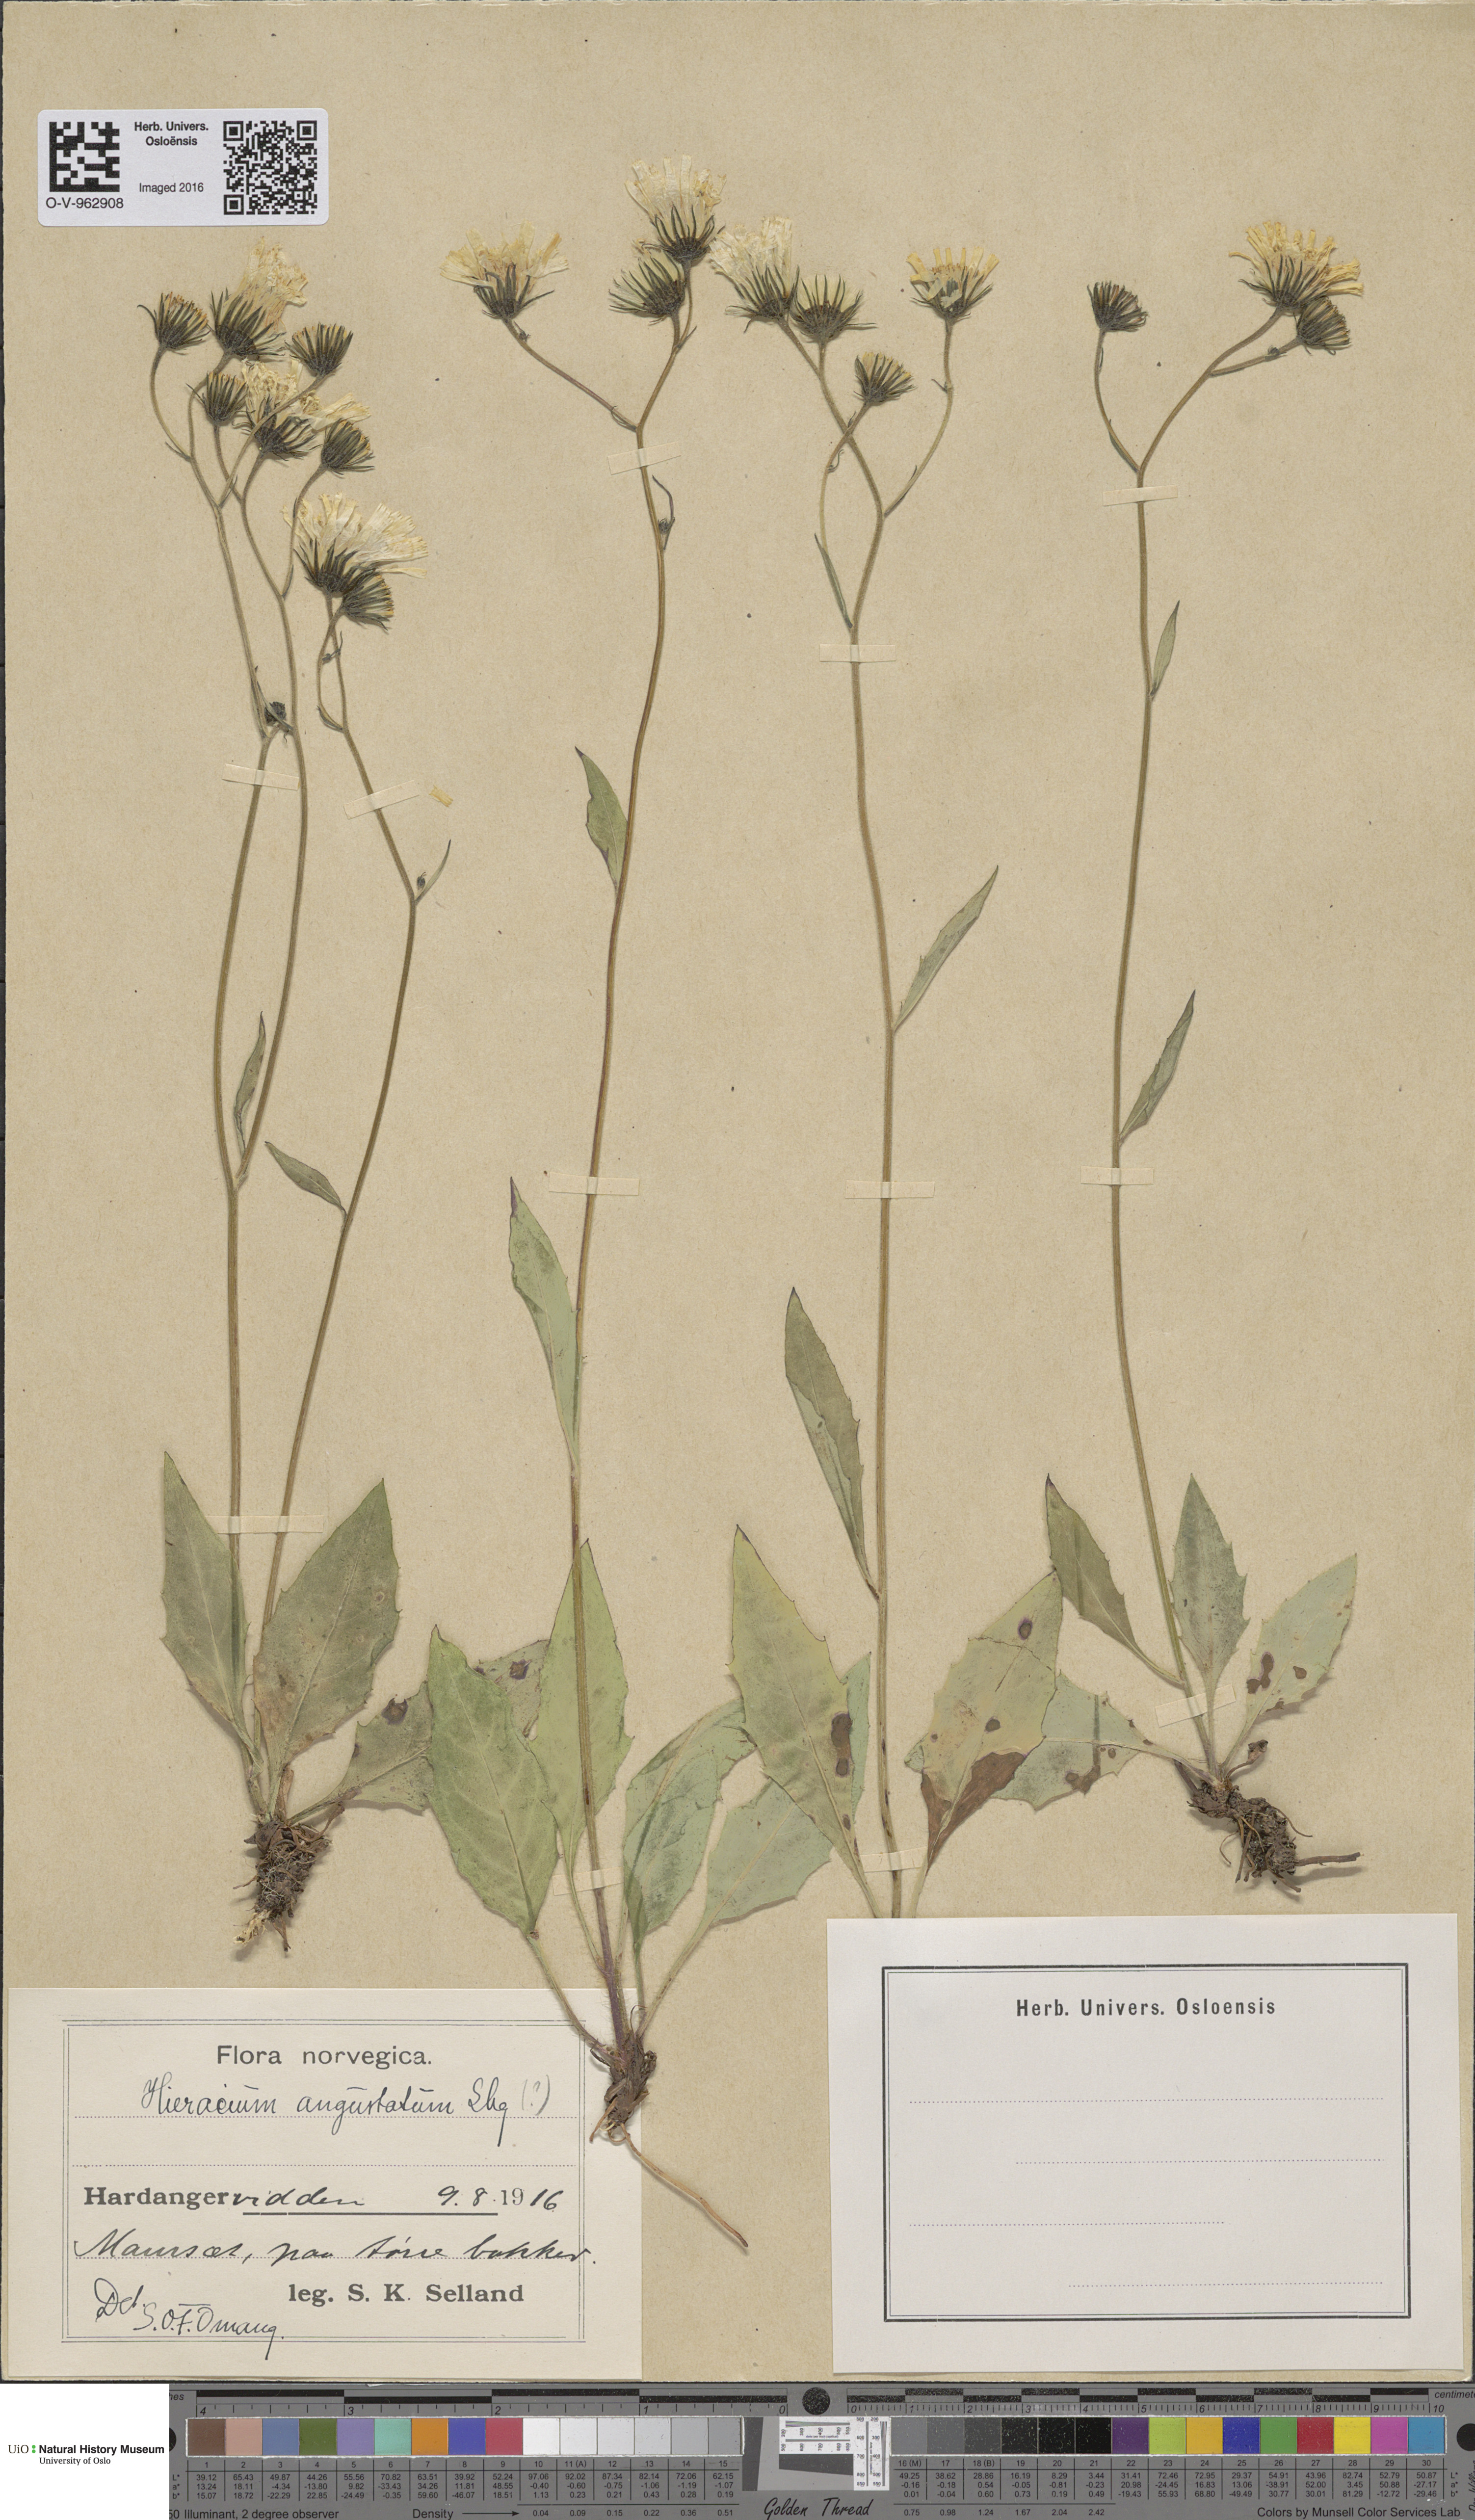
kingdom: Plantae
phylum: Tracheophyta
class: Magnoliopsida
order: Asterales
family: Asteraceae
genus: Hieracium
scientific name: Hieracium angustatum
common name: Lesser-leaved hawkweed
